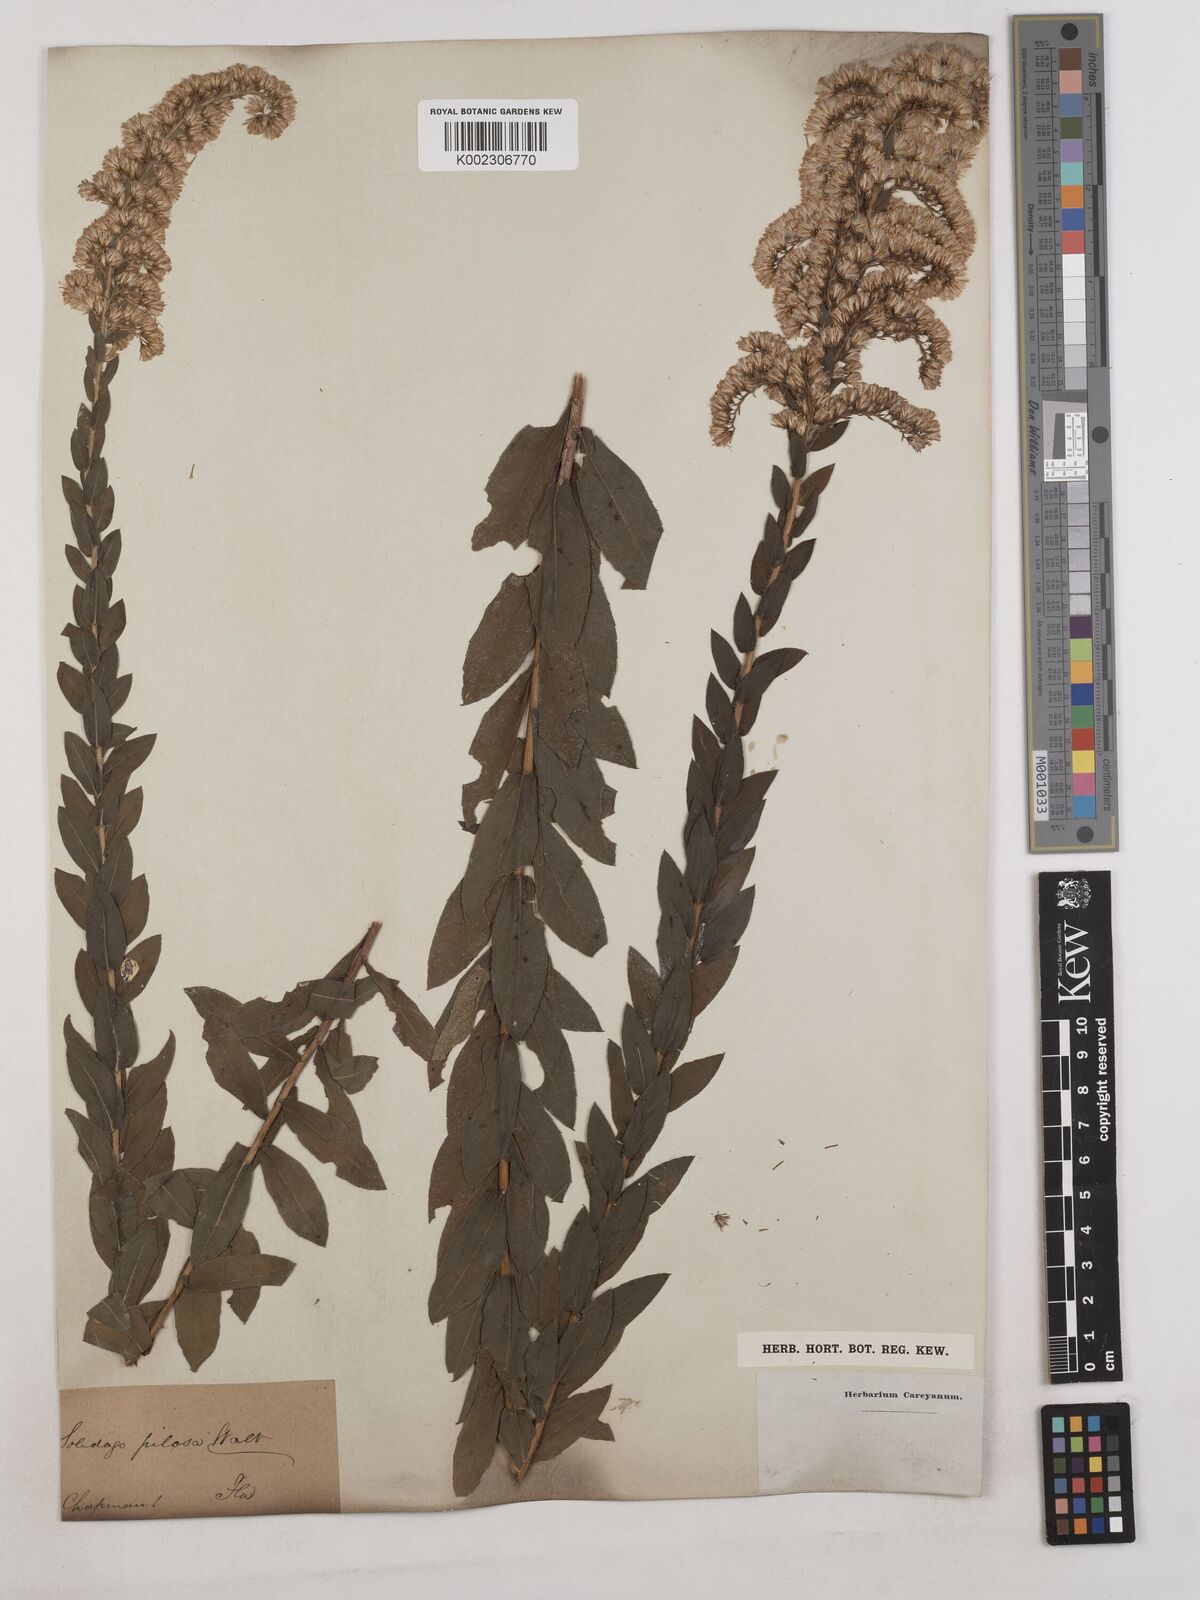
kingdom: Plantae
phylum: Tracheophyta
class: Magnoliopsida
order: Asterales
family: Asteraceae
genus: Solidago
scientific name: Solidago fistulosa
